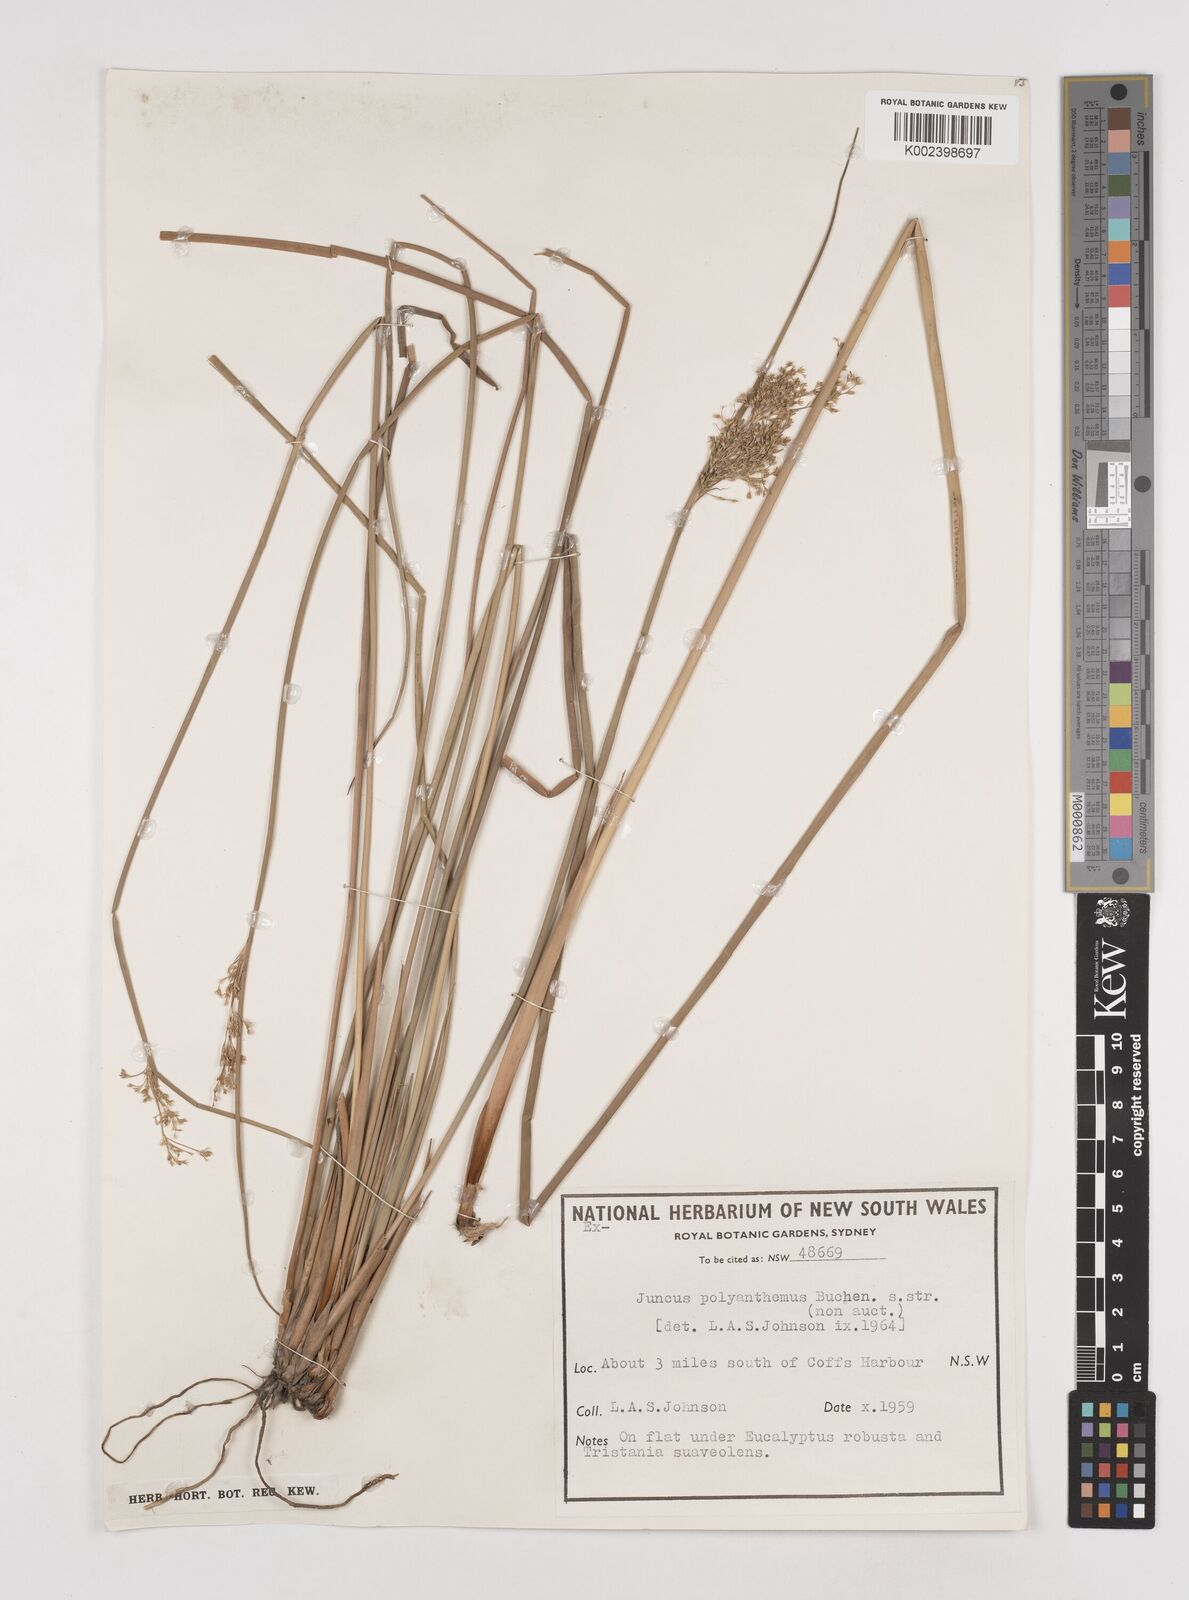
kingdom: Plantae
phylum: Tracheophyta
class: Liliopsida
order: Poales
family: Juncaceae
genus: Juncus
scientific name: Juncus polyanthemus
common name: Manyflower rush
